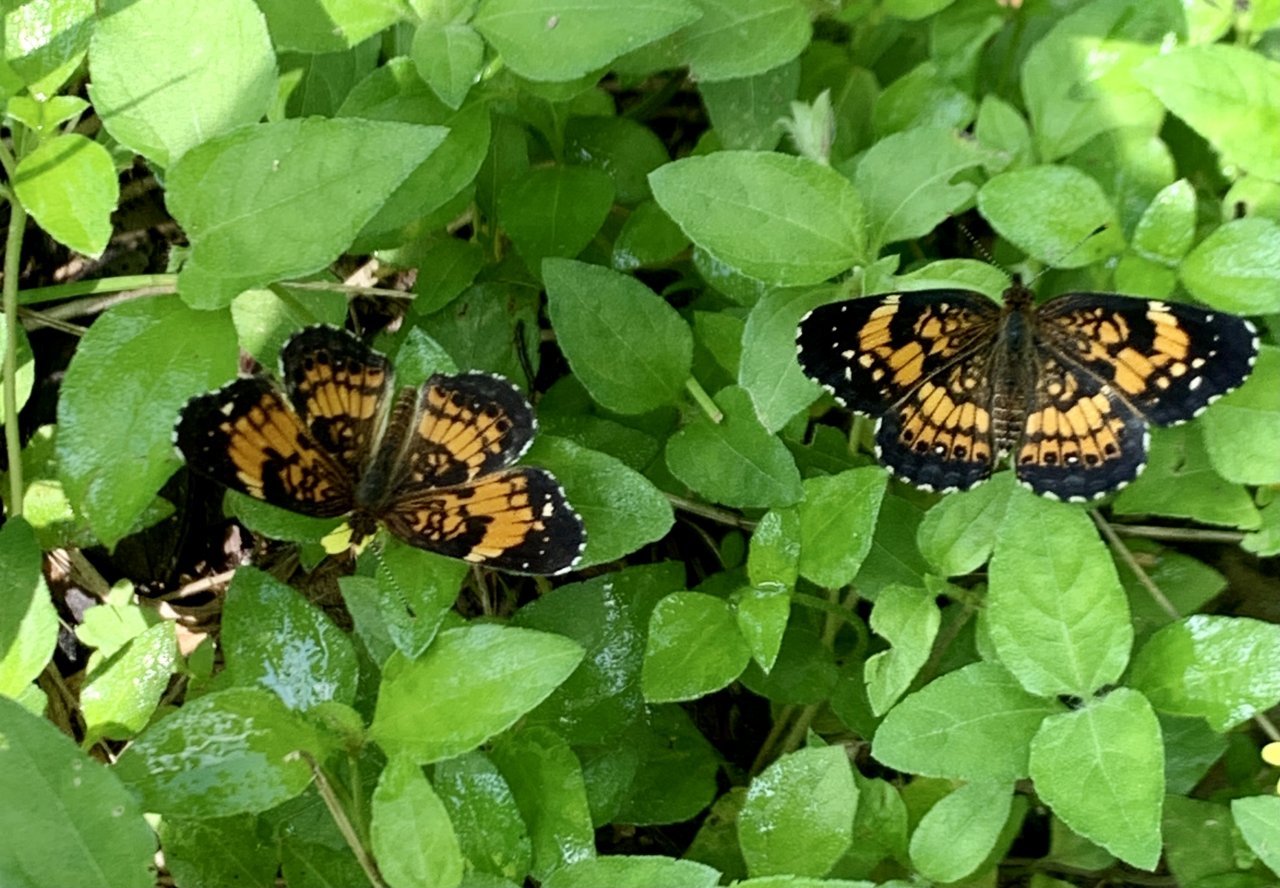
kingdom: Animalia
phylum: Arthropoda
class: Insecta
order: Lepidoptera
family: Nymphalidae
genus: Chlosyne
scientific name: Chlosyne nycteis
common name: Silvery Checkerspot
